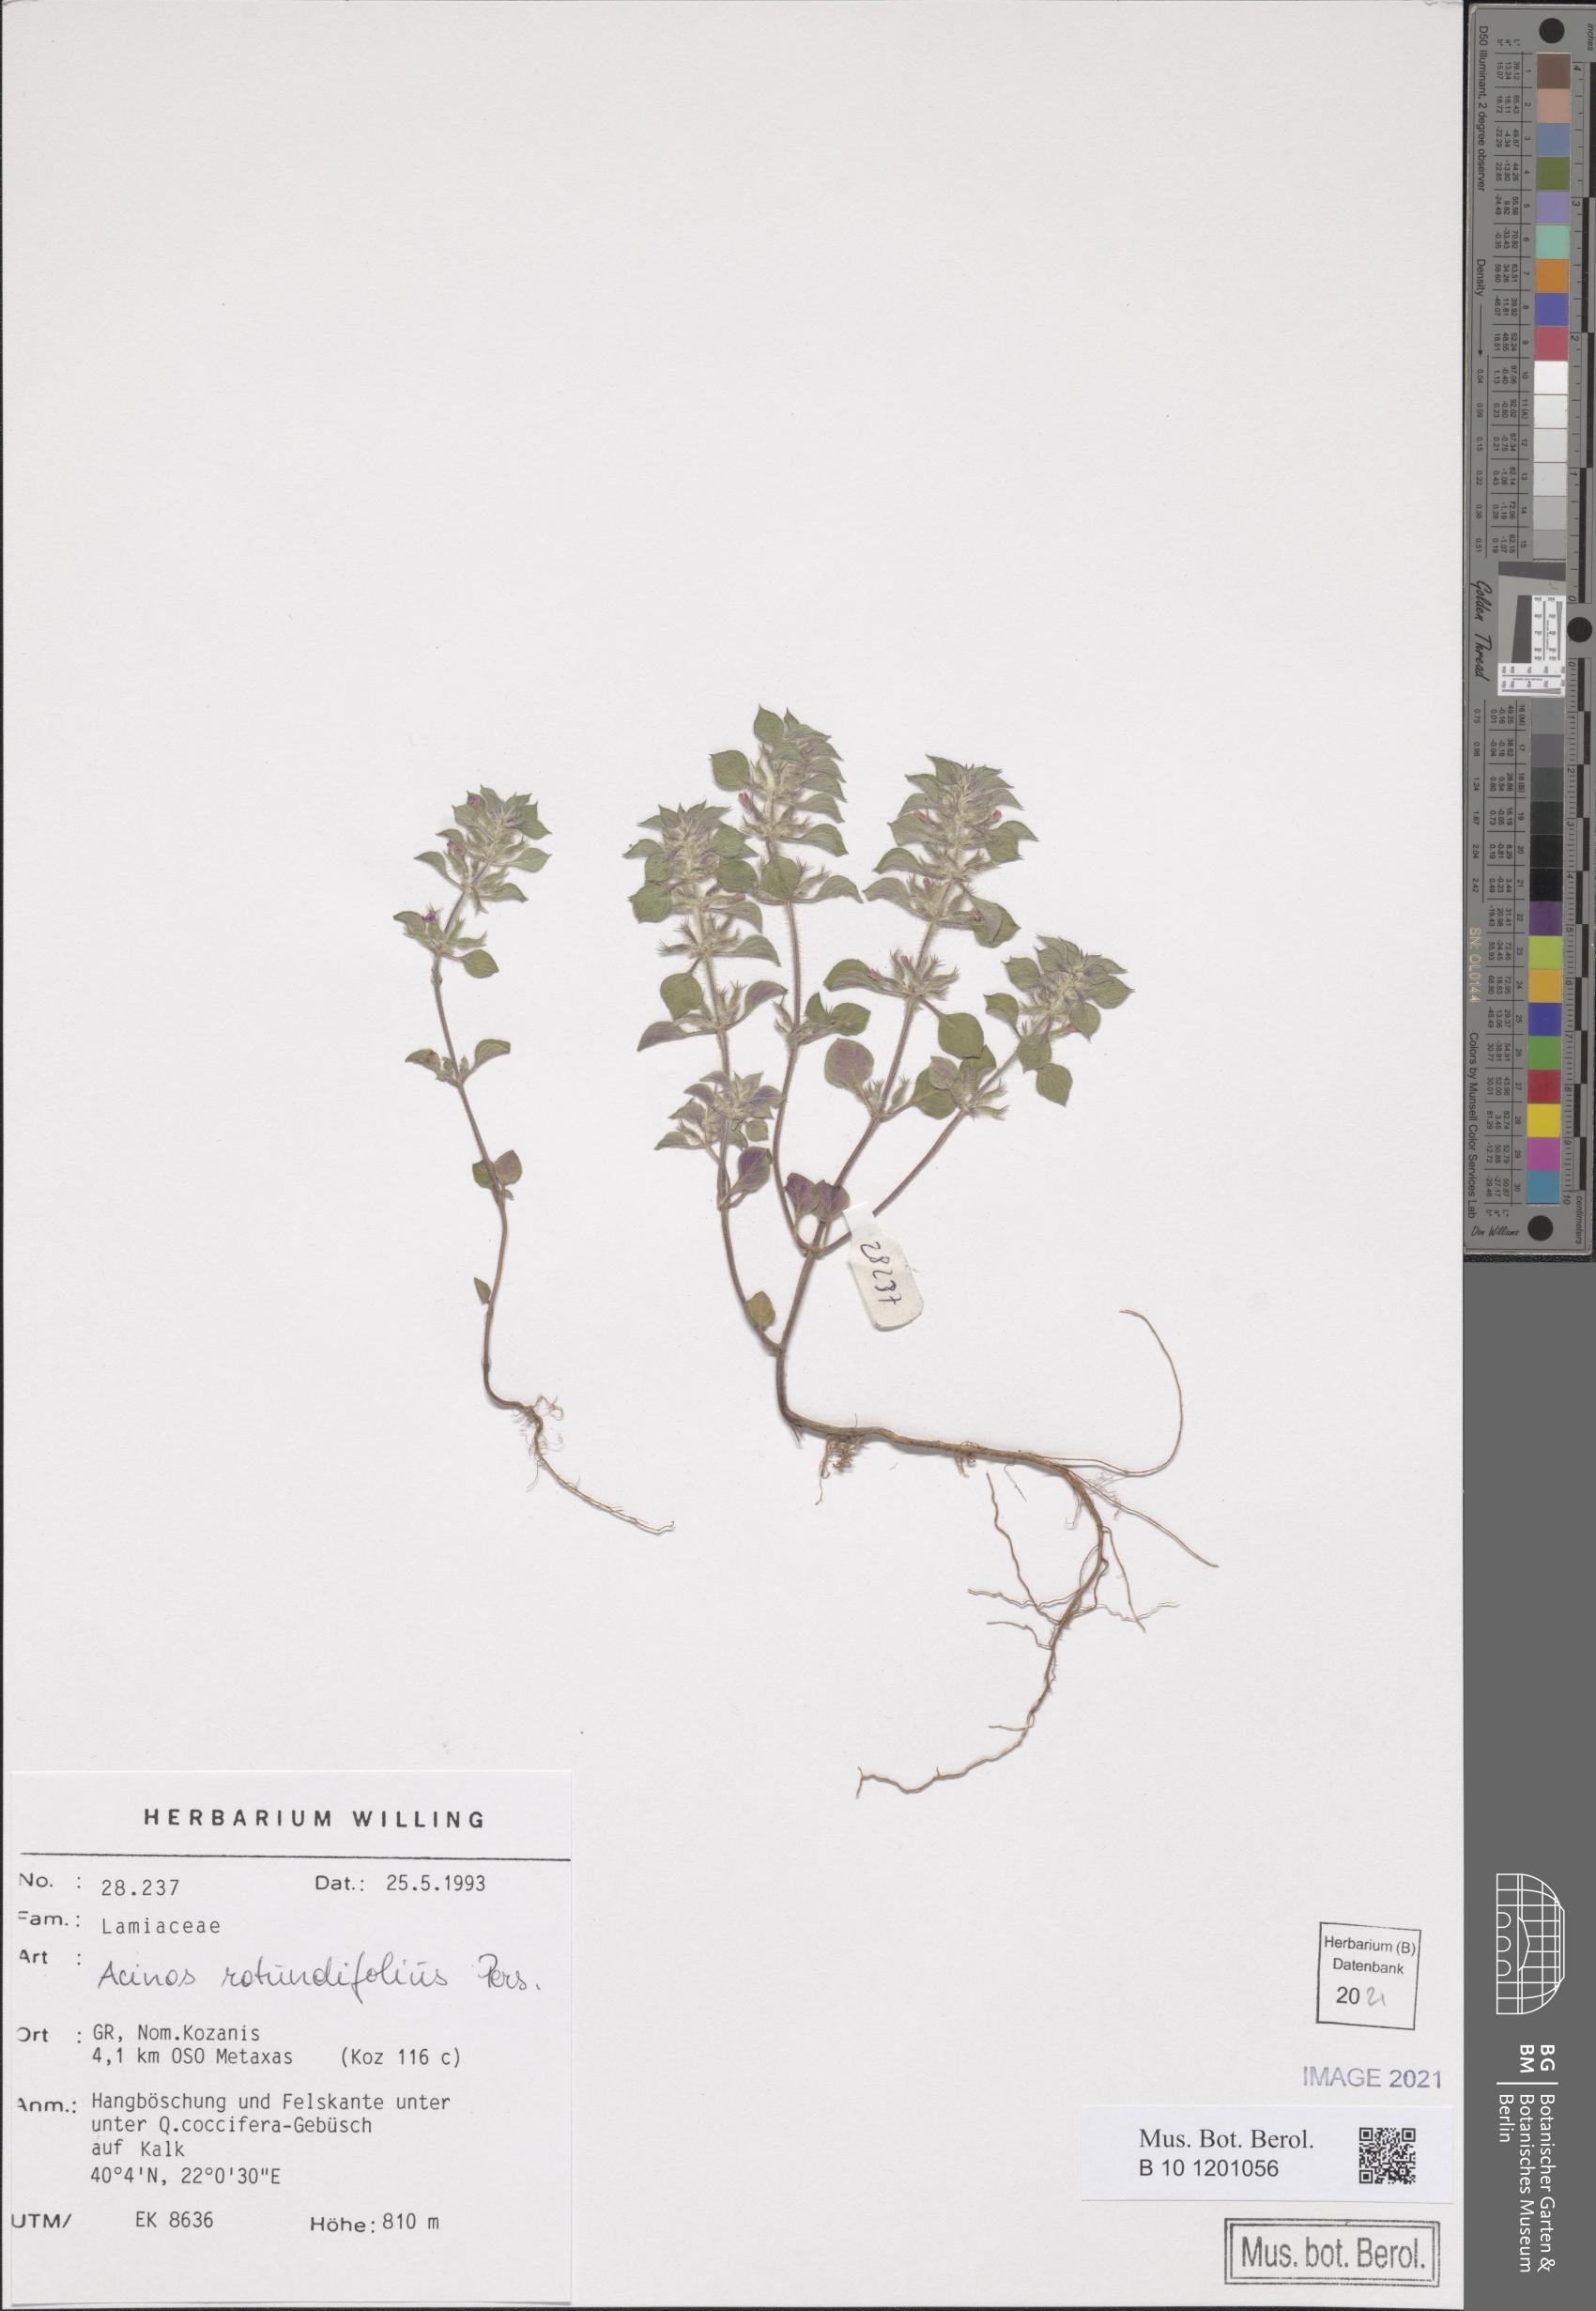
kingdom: Plantae
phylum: Tracheophyta
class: Magnoliopsida
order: Lamiales
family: Lamiaceae
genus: Clinopodium
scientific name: Clinopodium graveolens
